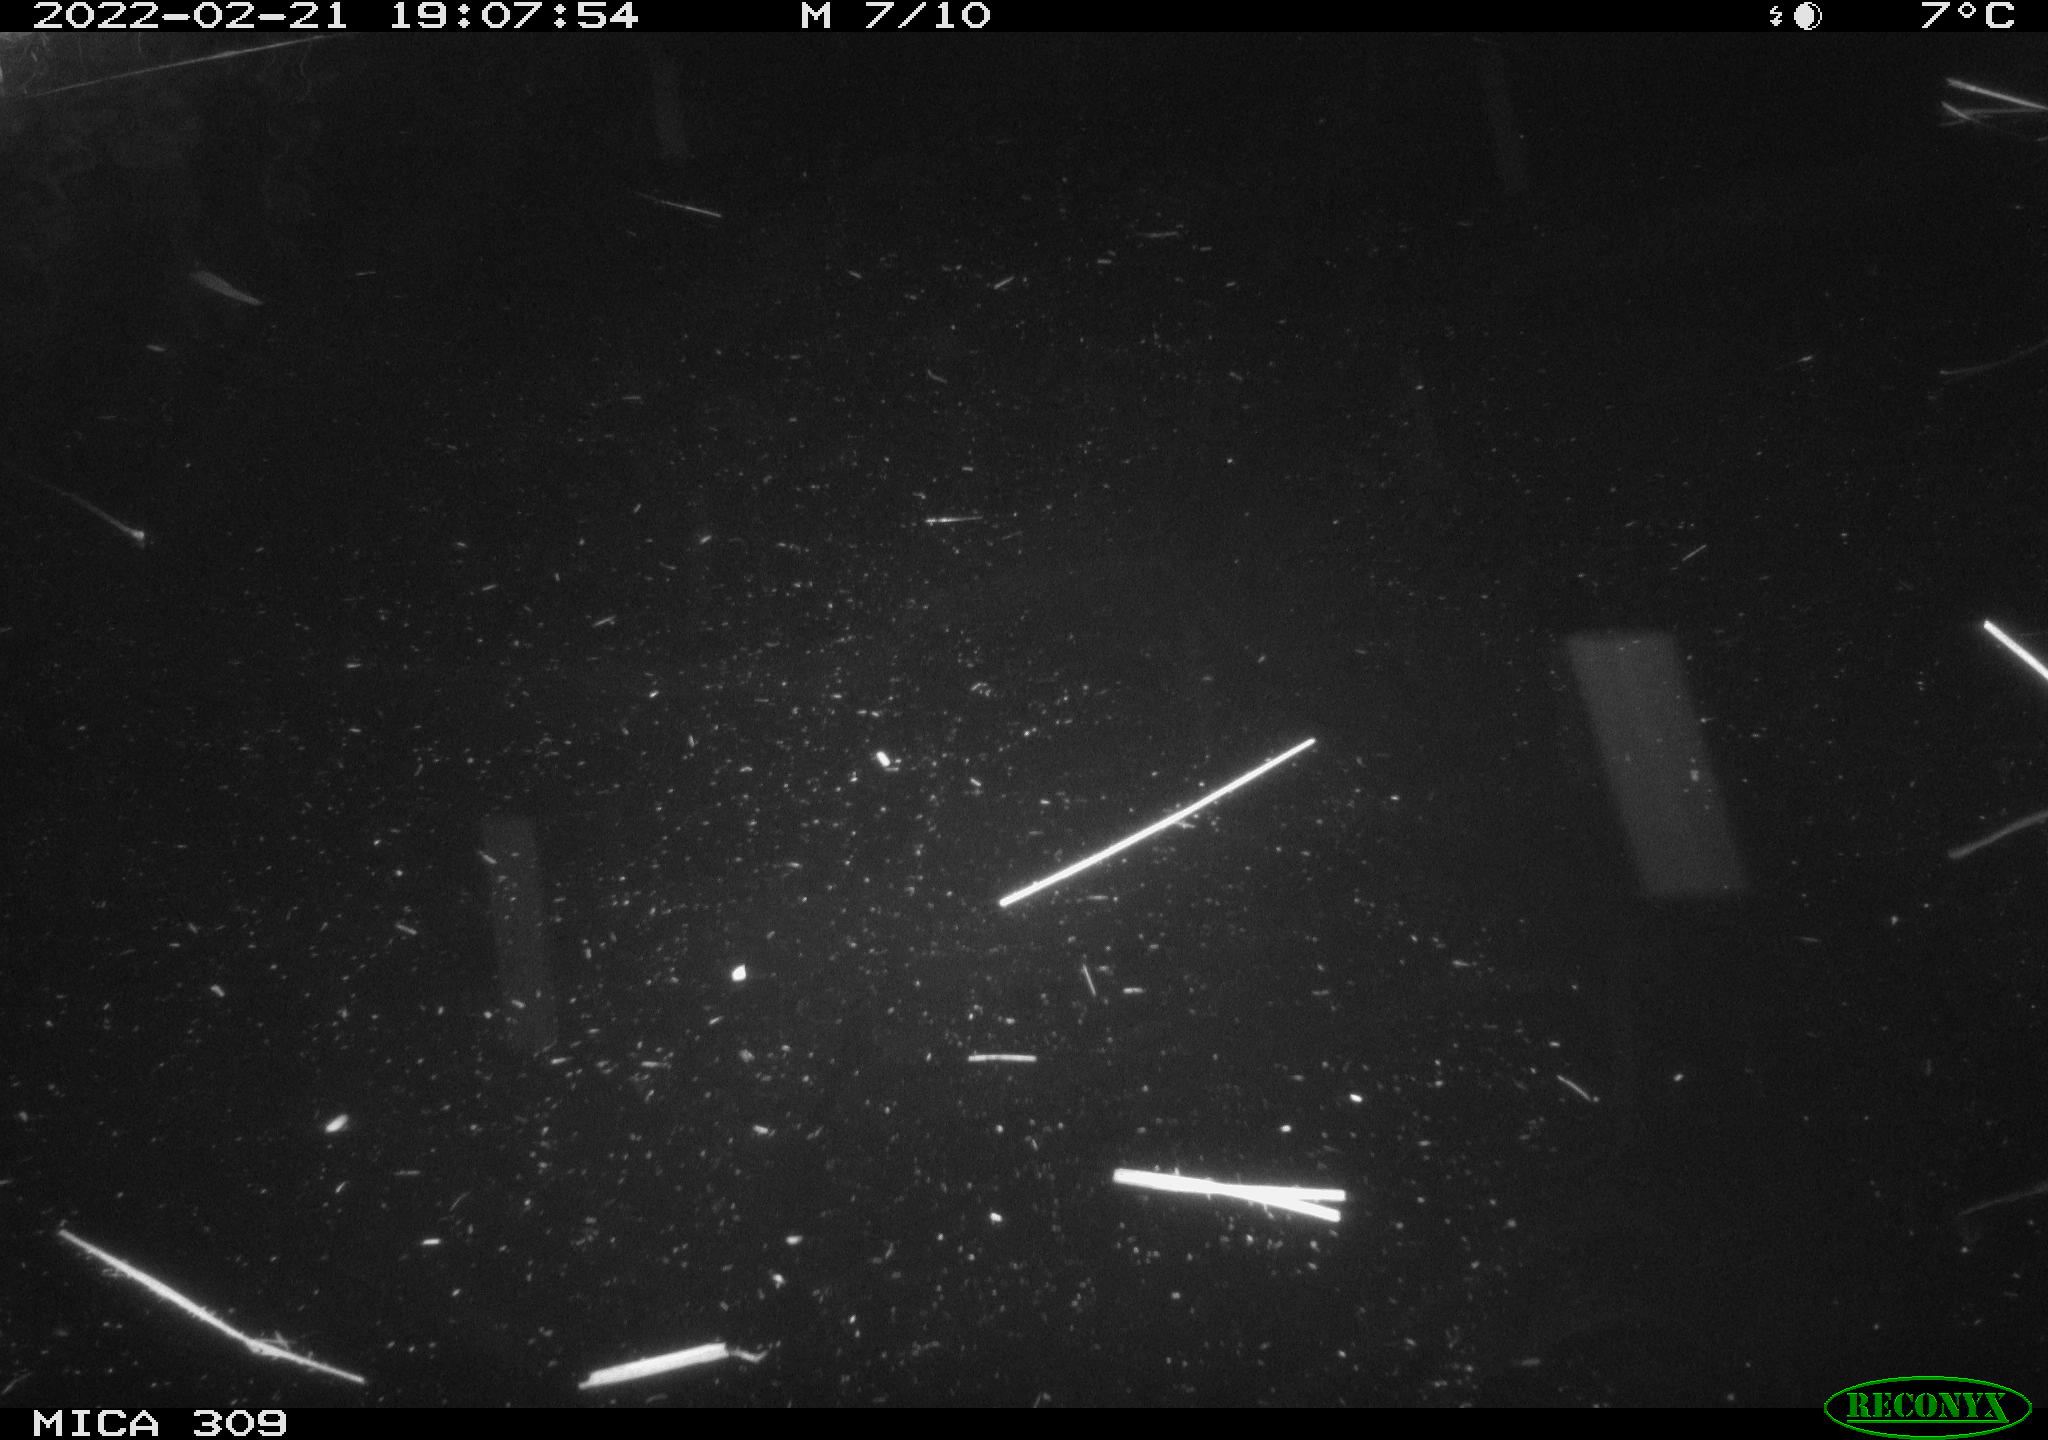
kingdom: Animalia
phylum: Chordata
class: Mammalia
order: Rodentia
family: Cricetidae
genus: Ondatra
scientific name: Ondatra zibethicus
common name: Muskrat
